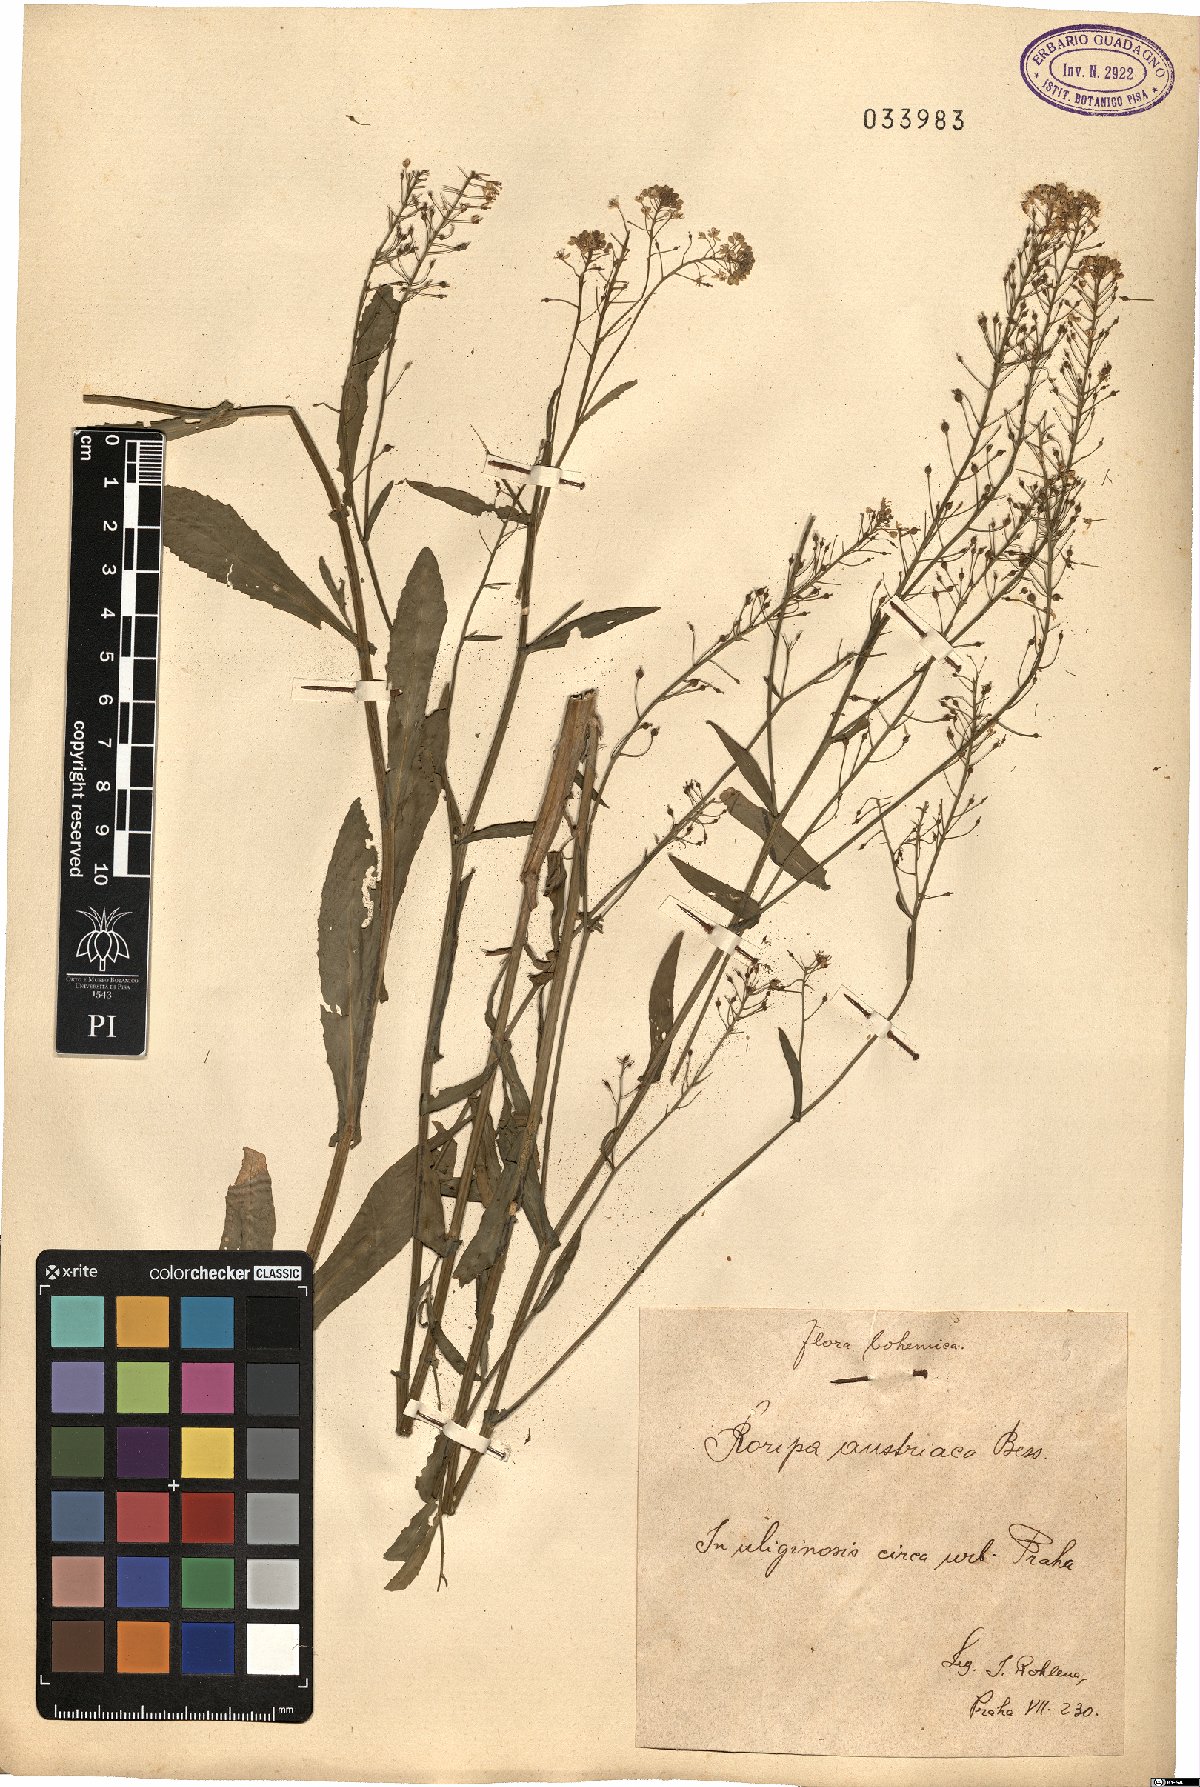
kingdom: Plantae
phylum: Tracheophyta
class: Magnoliopsida
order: Brassicales
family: Brassicaceae
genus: Rorippa
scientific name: Rorippa austriaca
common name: Austrian yellow-cress
